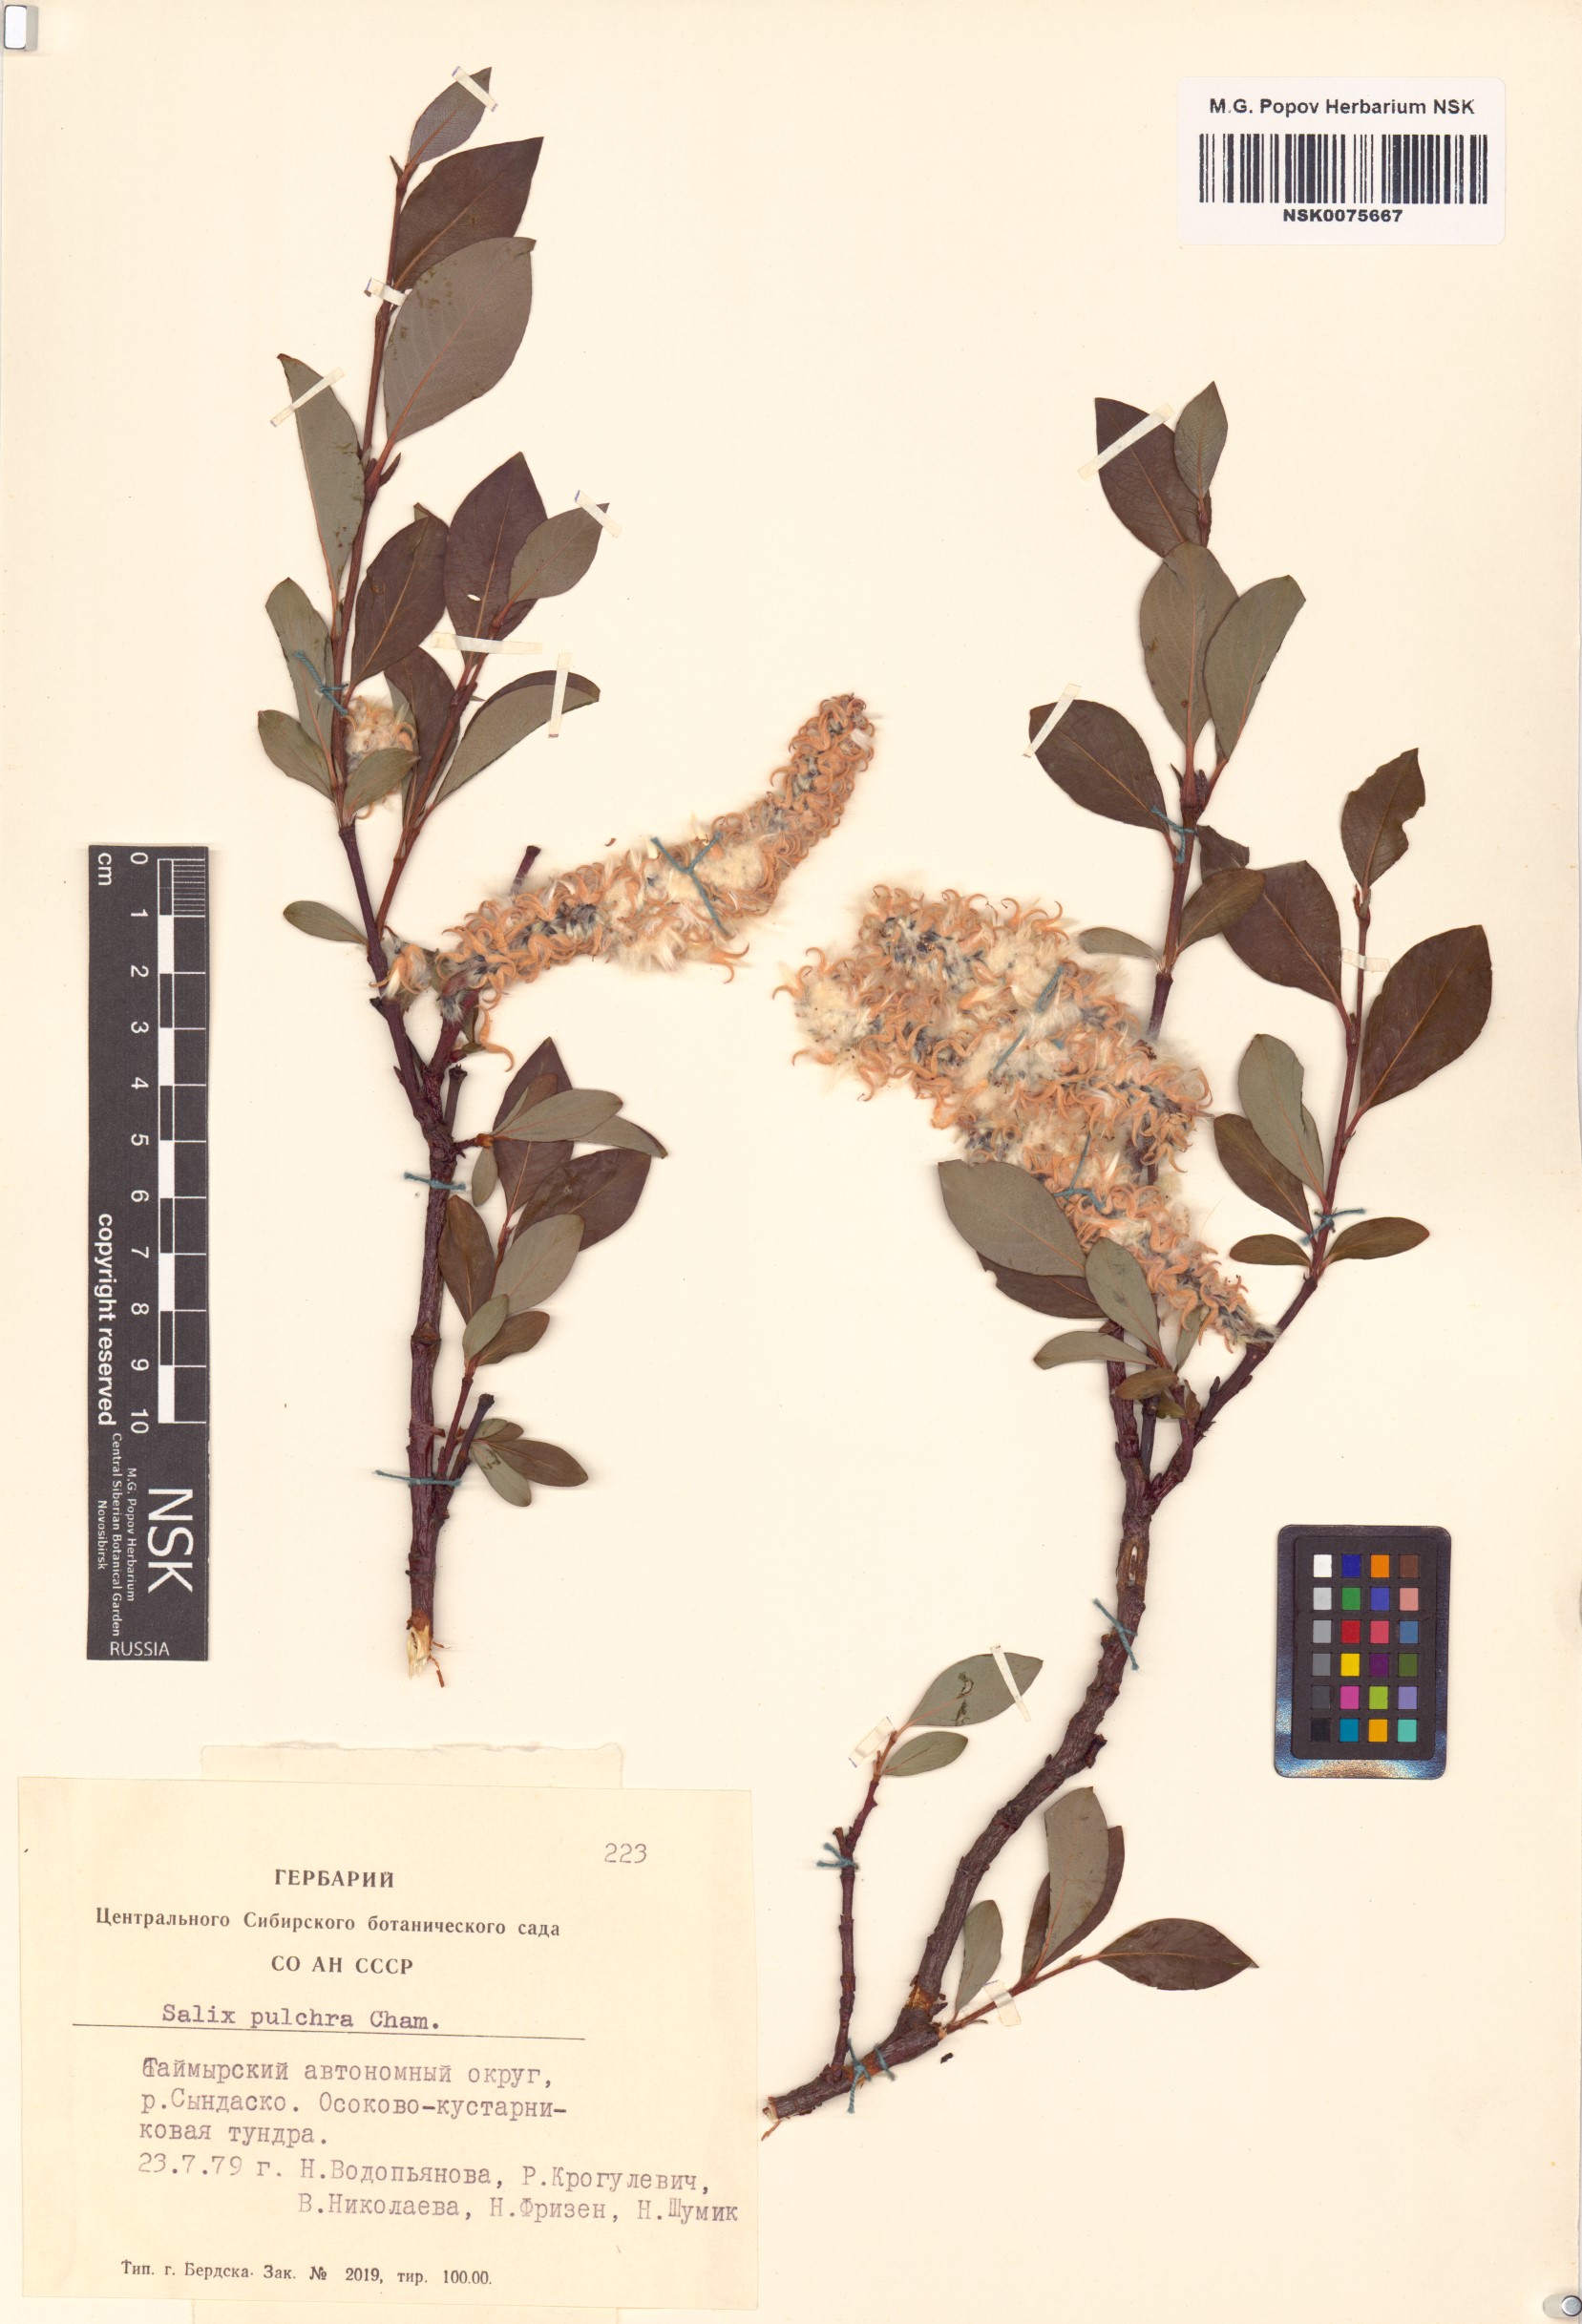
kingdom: Plantae
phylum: Tracheophyta
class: Magnoliopsida
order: Malpighiales
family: Salicaceae
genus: Salix
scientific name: Salix pulchra
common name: Diamond-leaved willow
